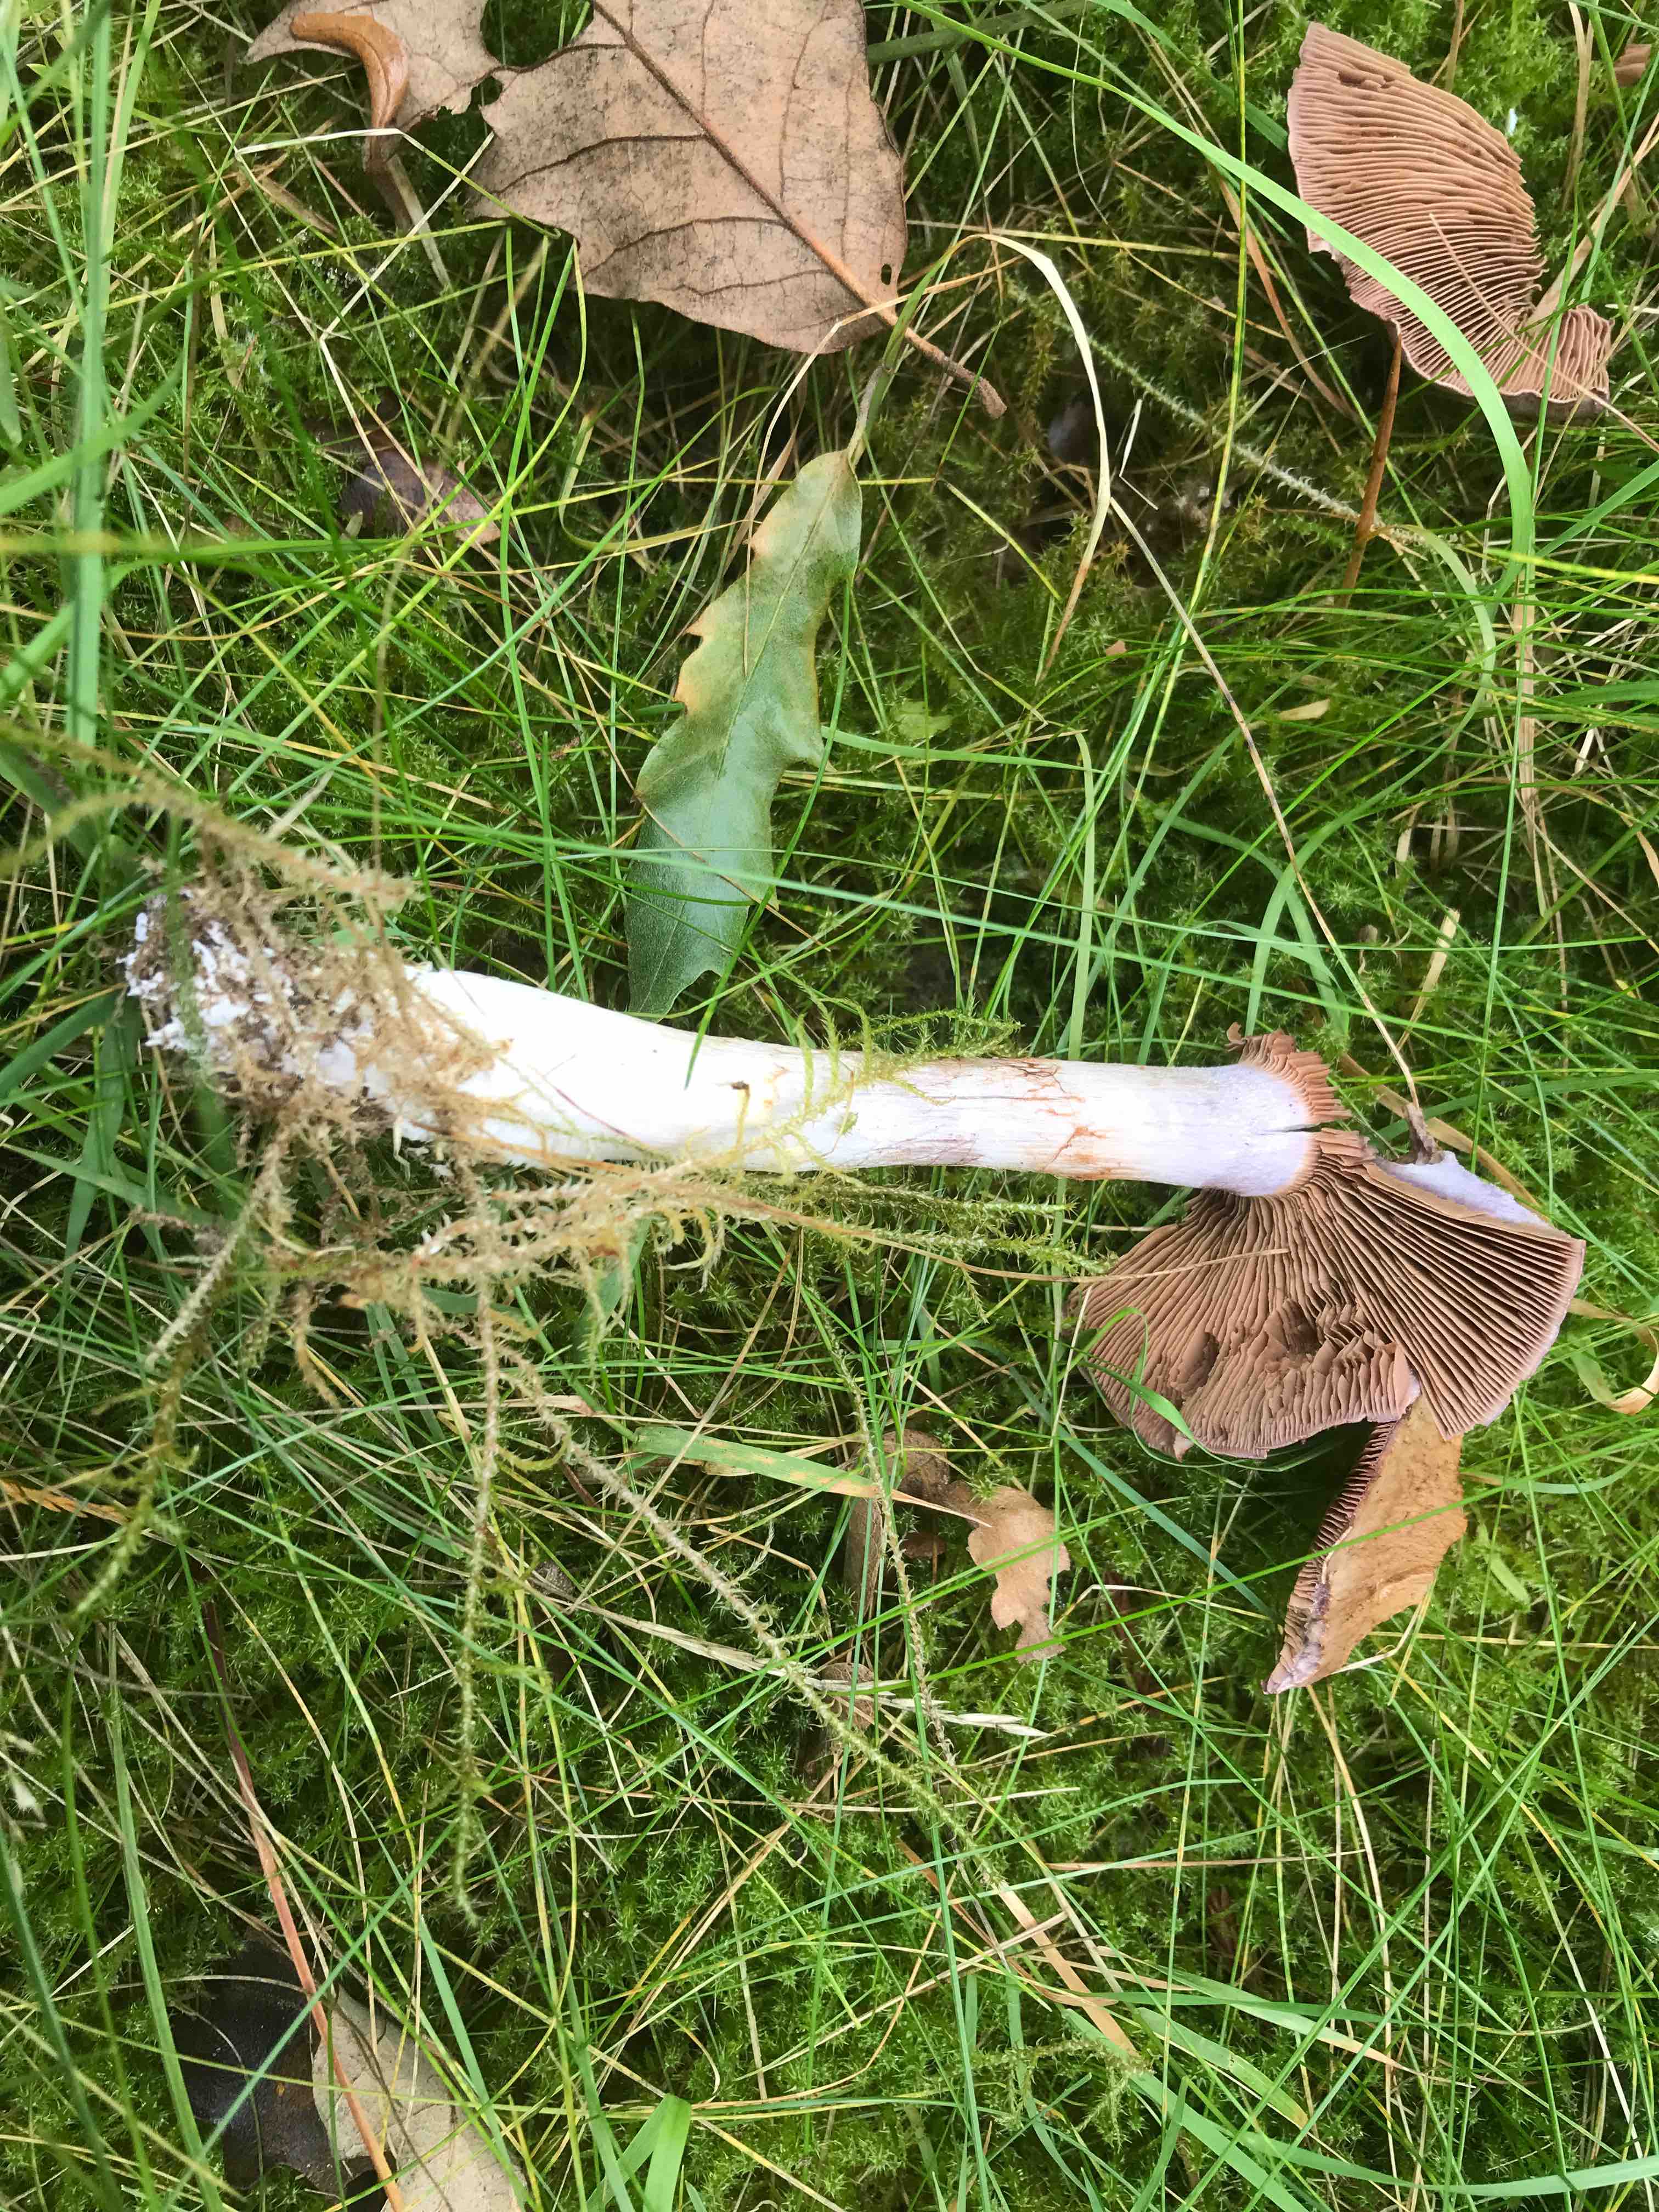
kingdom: Fungi
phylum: Basidiomycota
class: Agaricomycetes
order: Agaricales
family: Cortinariaceae
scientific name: Cortinariaceae
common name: slørhatfamilien
